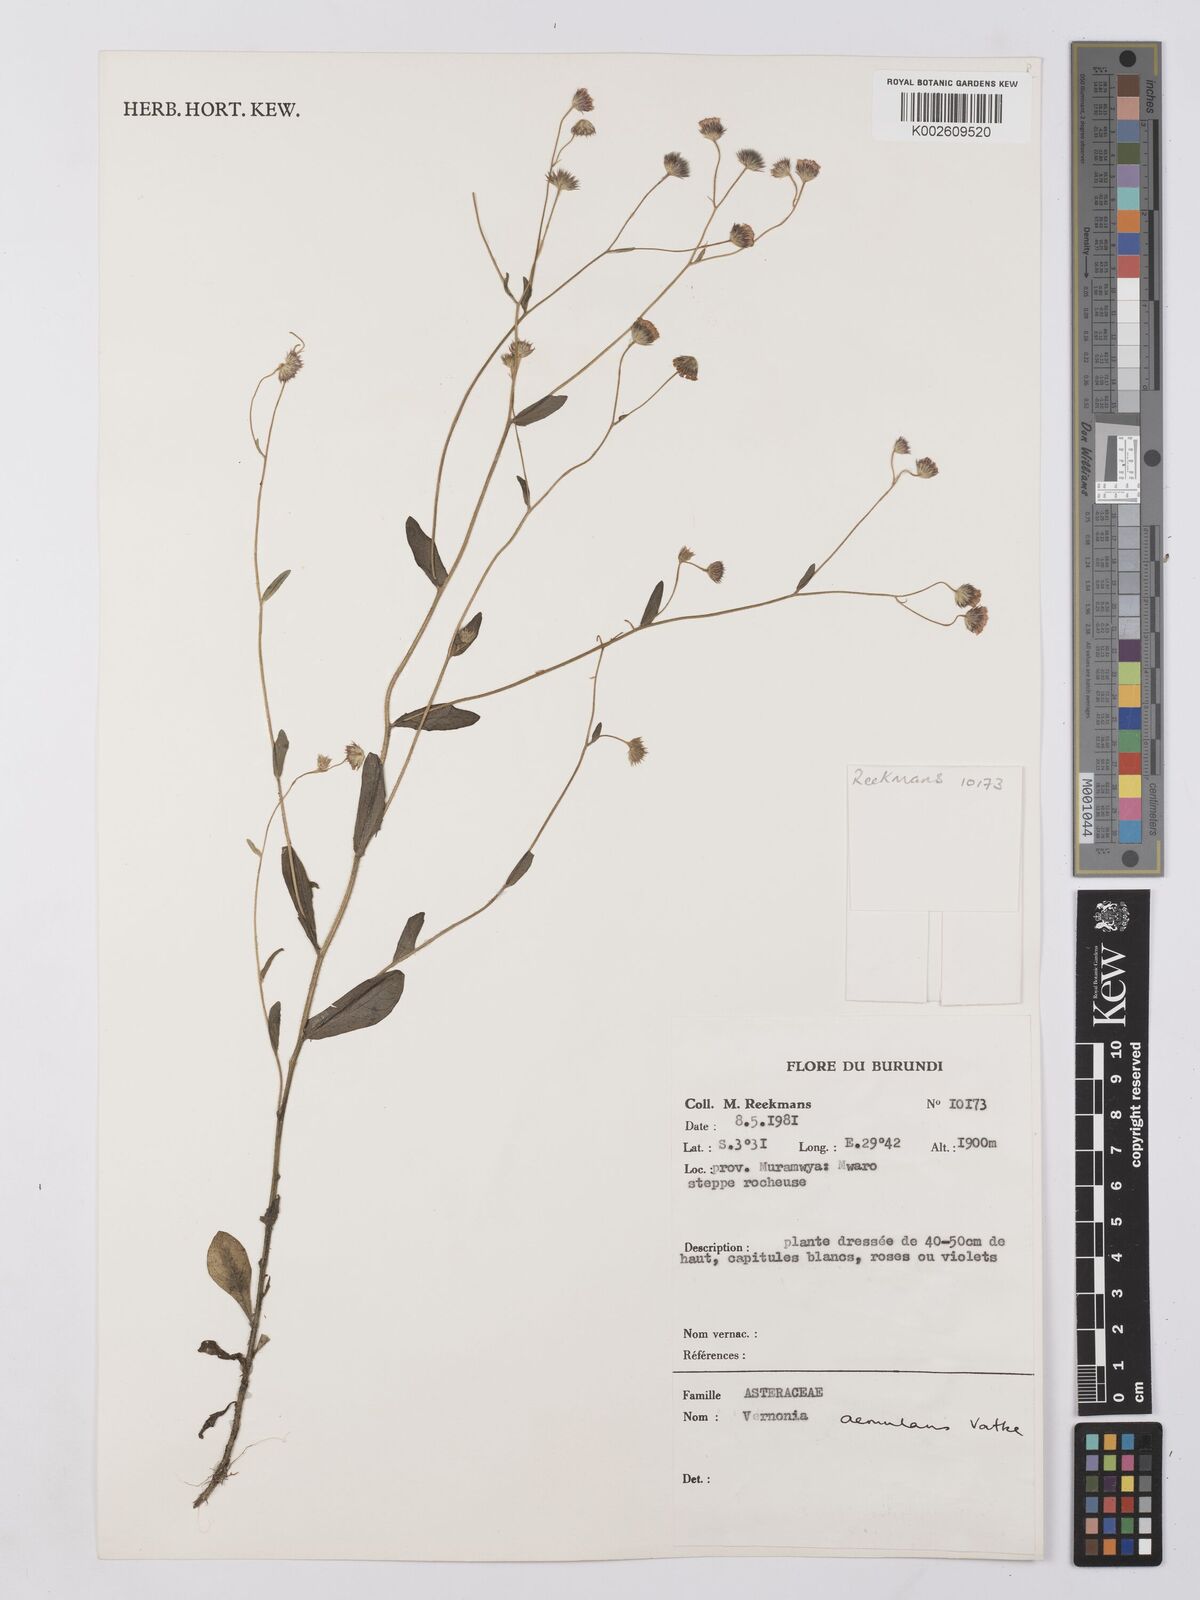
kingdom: Plantae
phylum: Tracheophyta
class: Magnoliopsida
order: Asterales
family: Asteraceae
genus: Vernonia
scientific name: Vernonia
